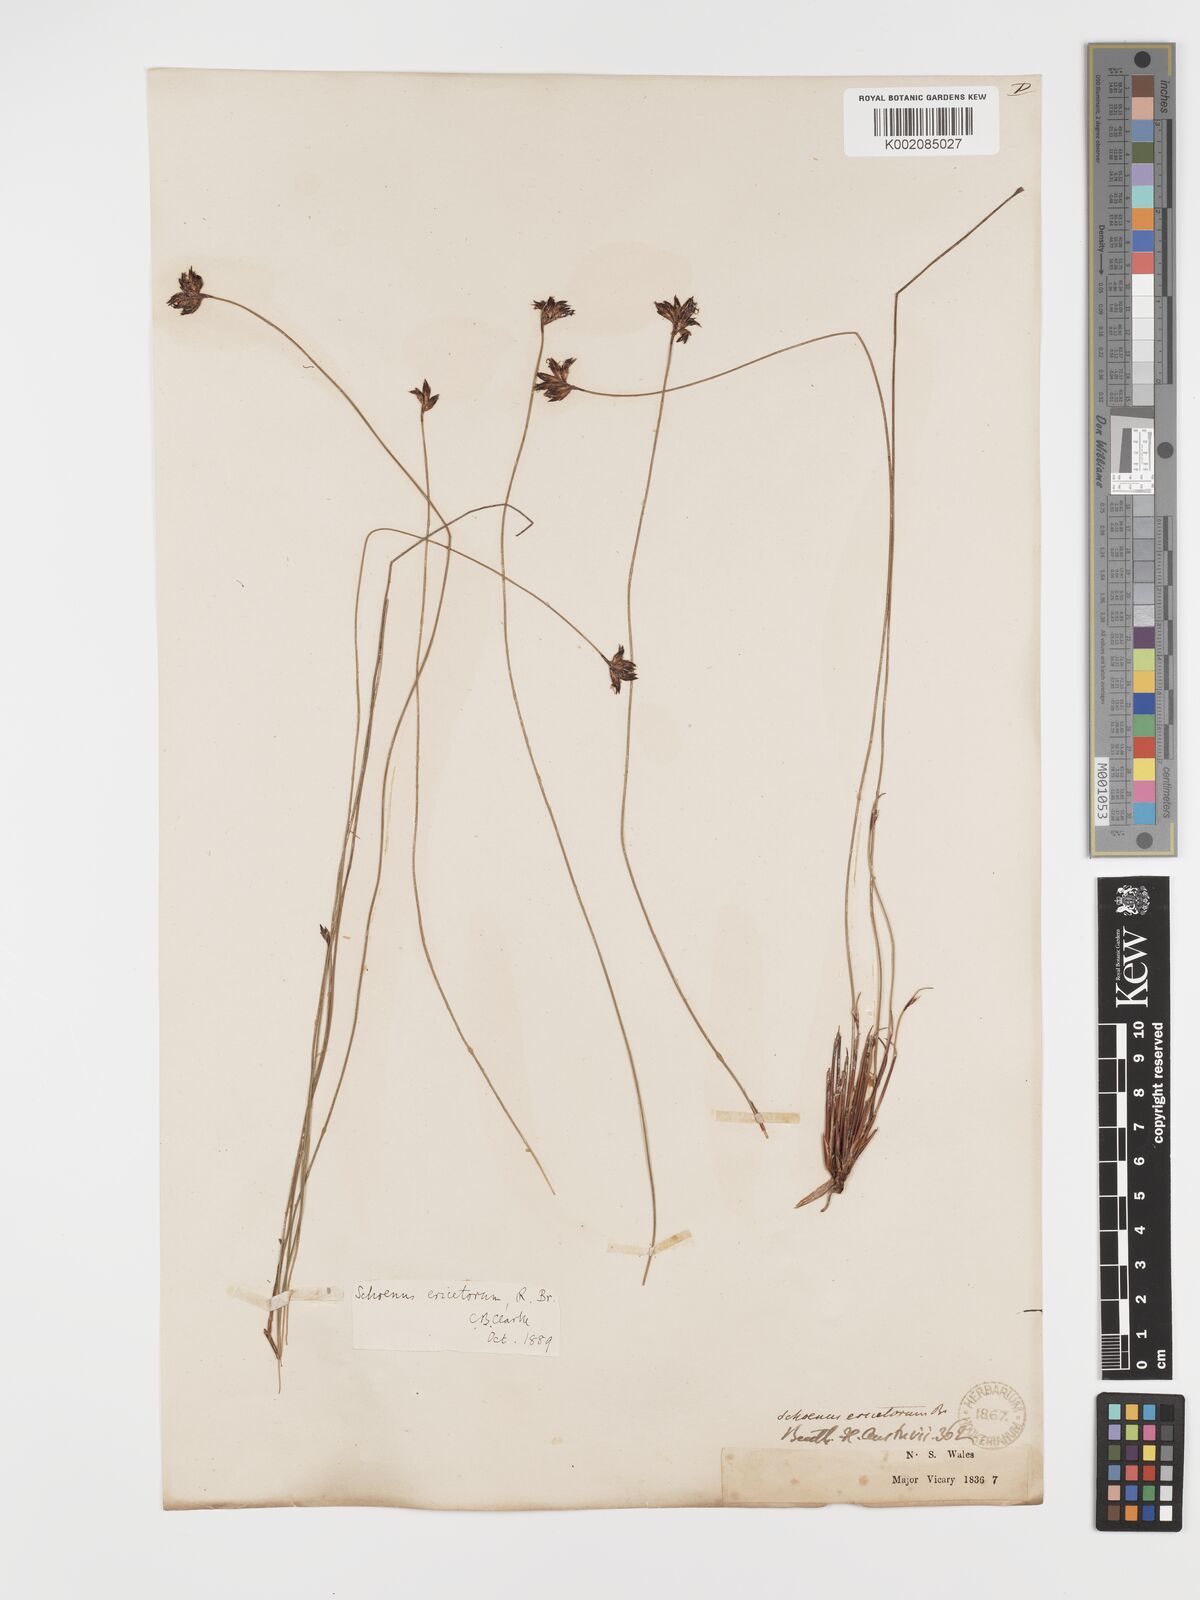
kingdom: Plantae
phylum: Tracheophyta
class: Liliopsida
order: Poales
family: Cyperaceae
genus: Schoenus
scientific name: Schoenus ericetorum
